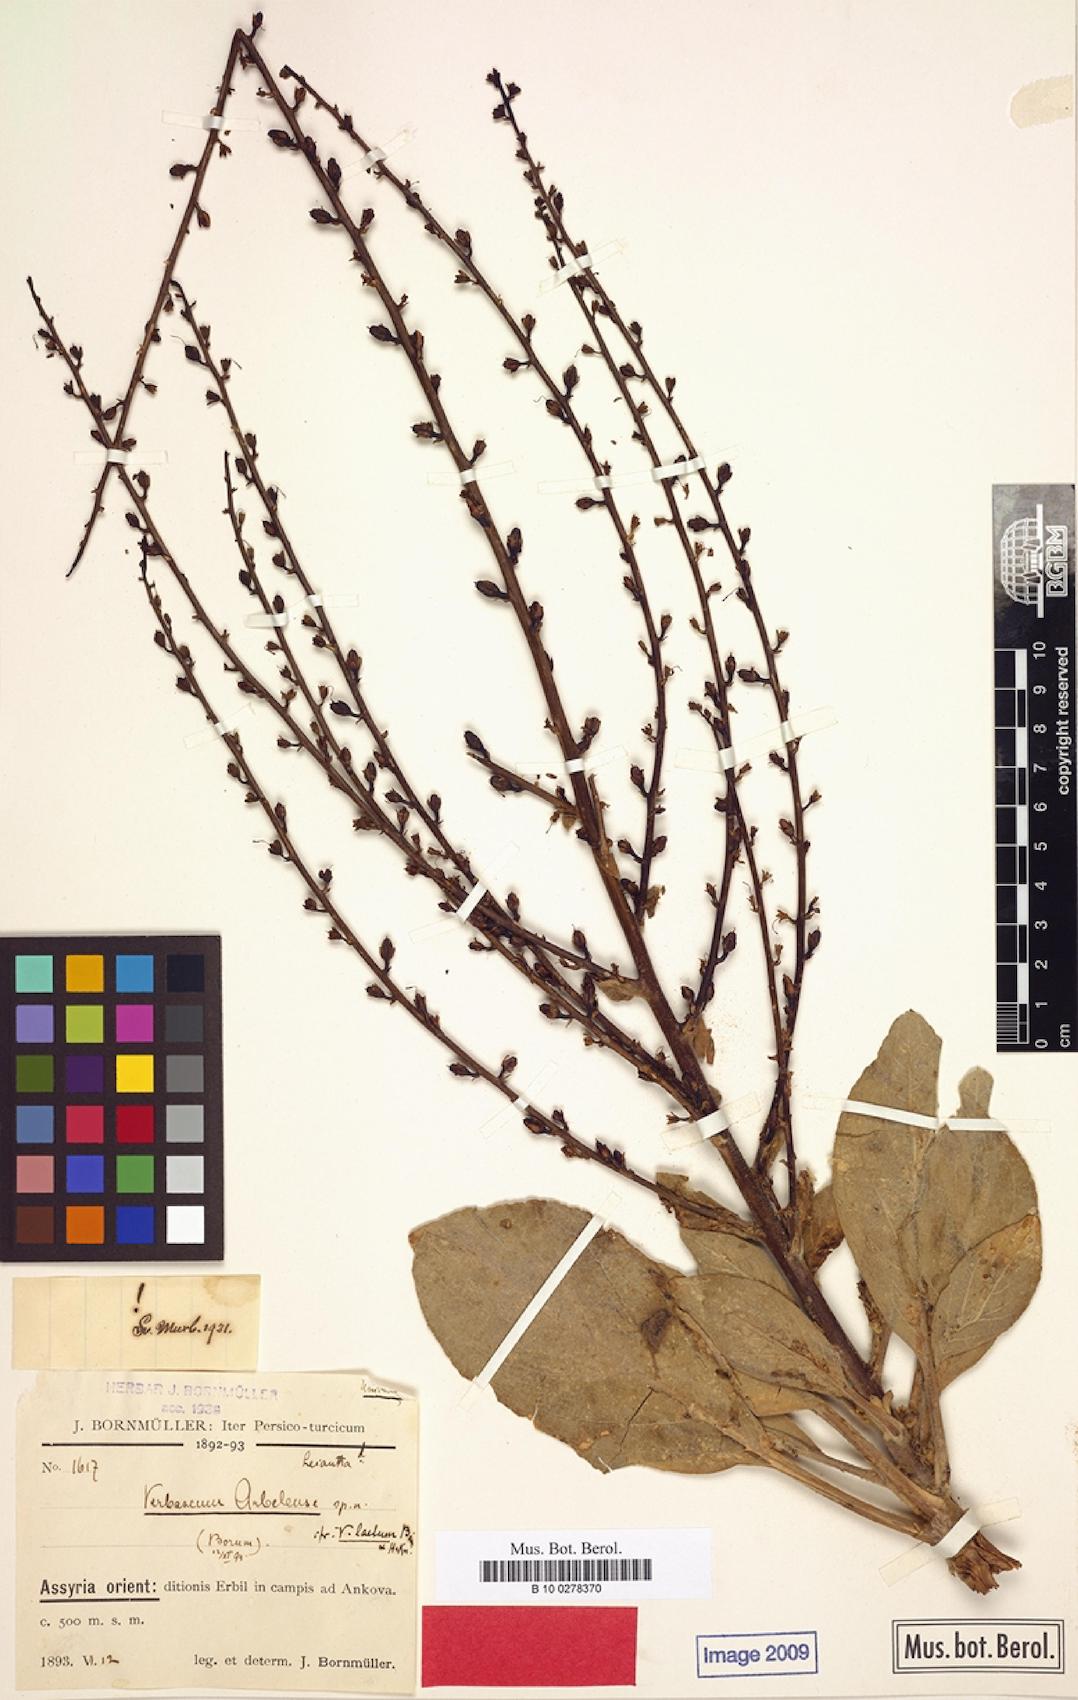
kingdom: Plantae
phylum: Tracheophyta
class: Magnoliopsida
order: Lamiales
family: Scrophulariaceae
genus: Verbascum
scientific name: Verbascum arbelense
